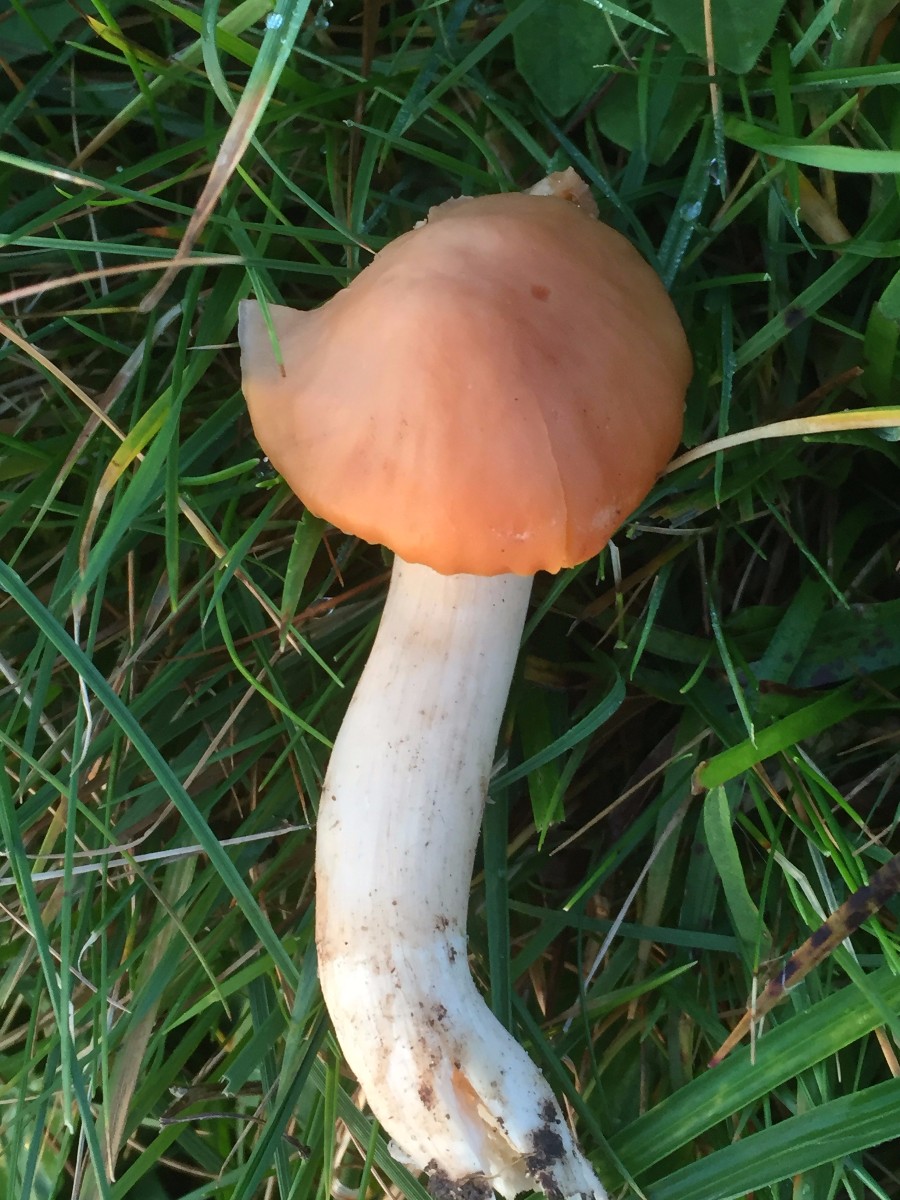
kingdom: Fungi
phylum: Basidiomycota
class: Agaricomycetes
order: Agaricales
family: Hygrophoraceae
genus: Cuphophyllus
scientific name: Cuphophyllus pratensis
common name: eng-vokshat
